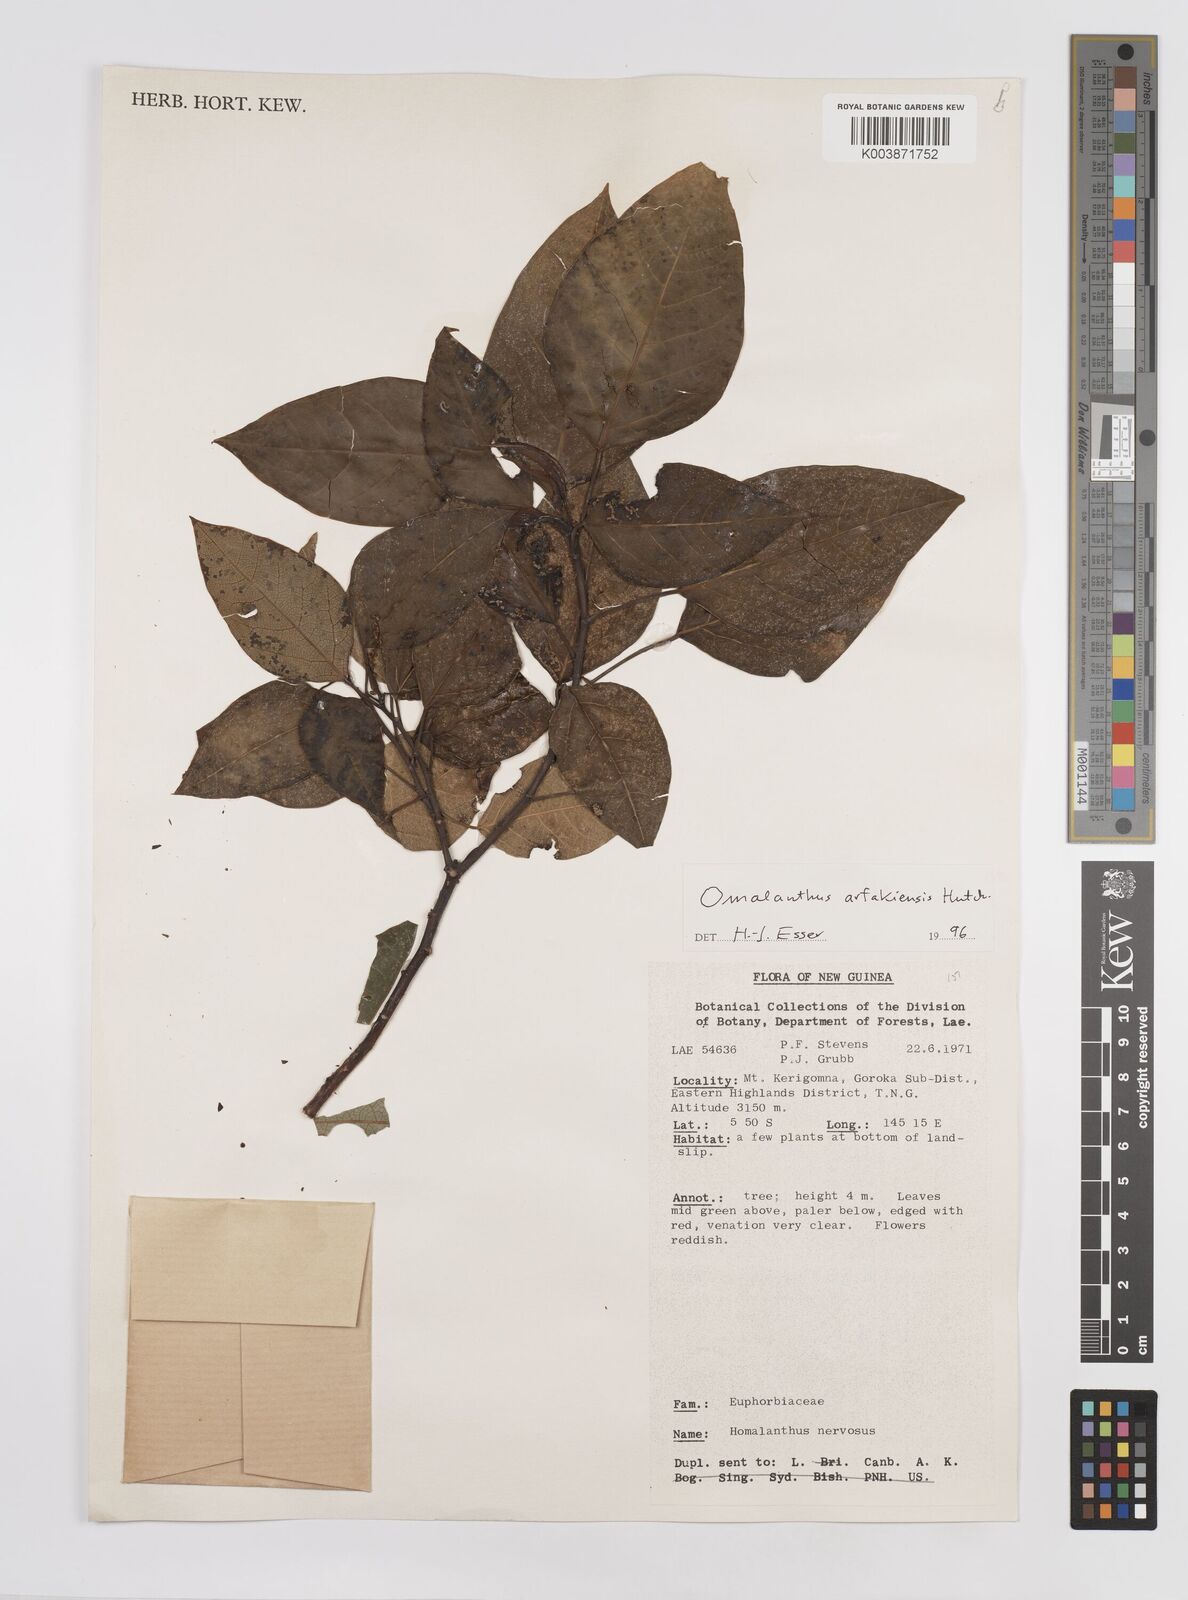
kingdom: Plantae
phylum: Tracheophyta
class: Magnoliopsida
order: Malpighiales
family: Euphorbiaceae
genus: Homalanthus
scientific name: Homalanthus arfakiensis
